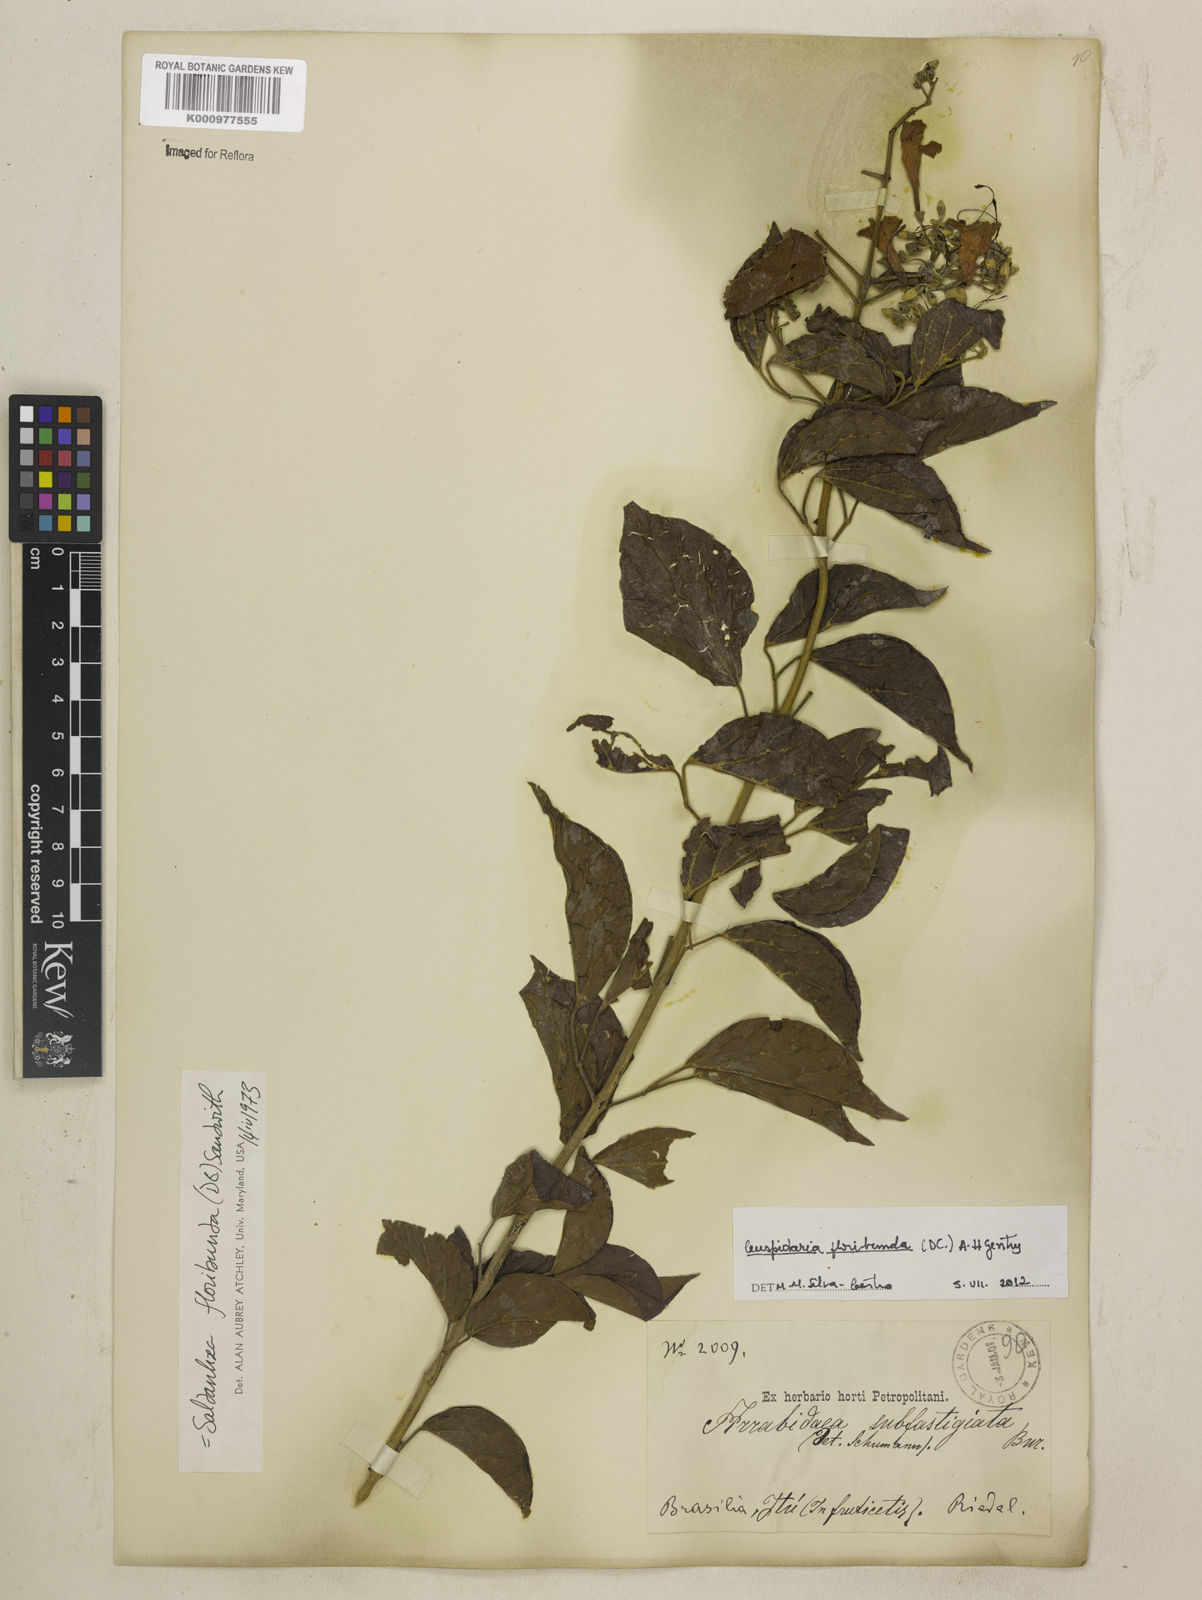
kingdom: Plantae
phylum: Tracheophyta
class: Magnoliopsida
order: Lamiales
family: Bignoniaceae
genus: Cuspidaria
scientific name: Cuspidaria floribunda
